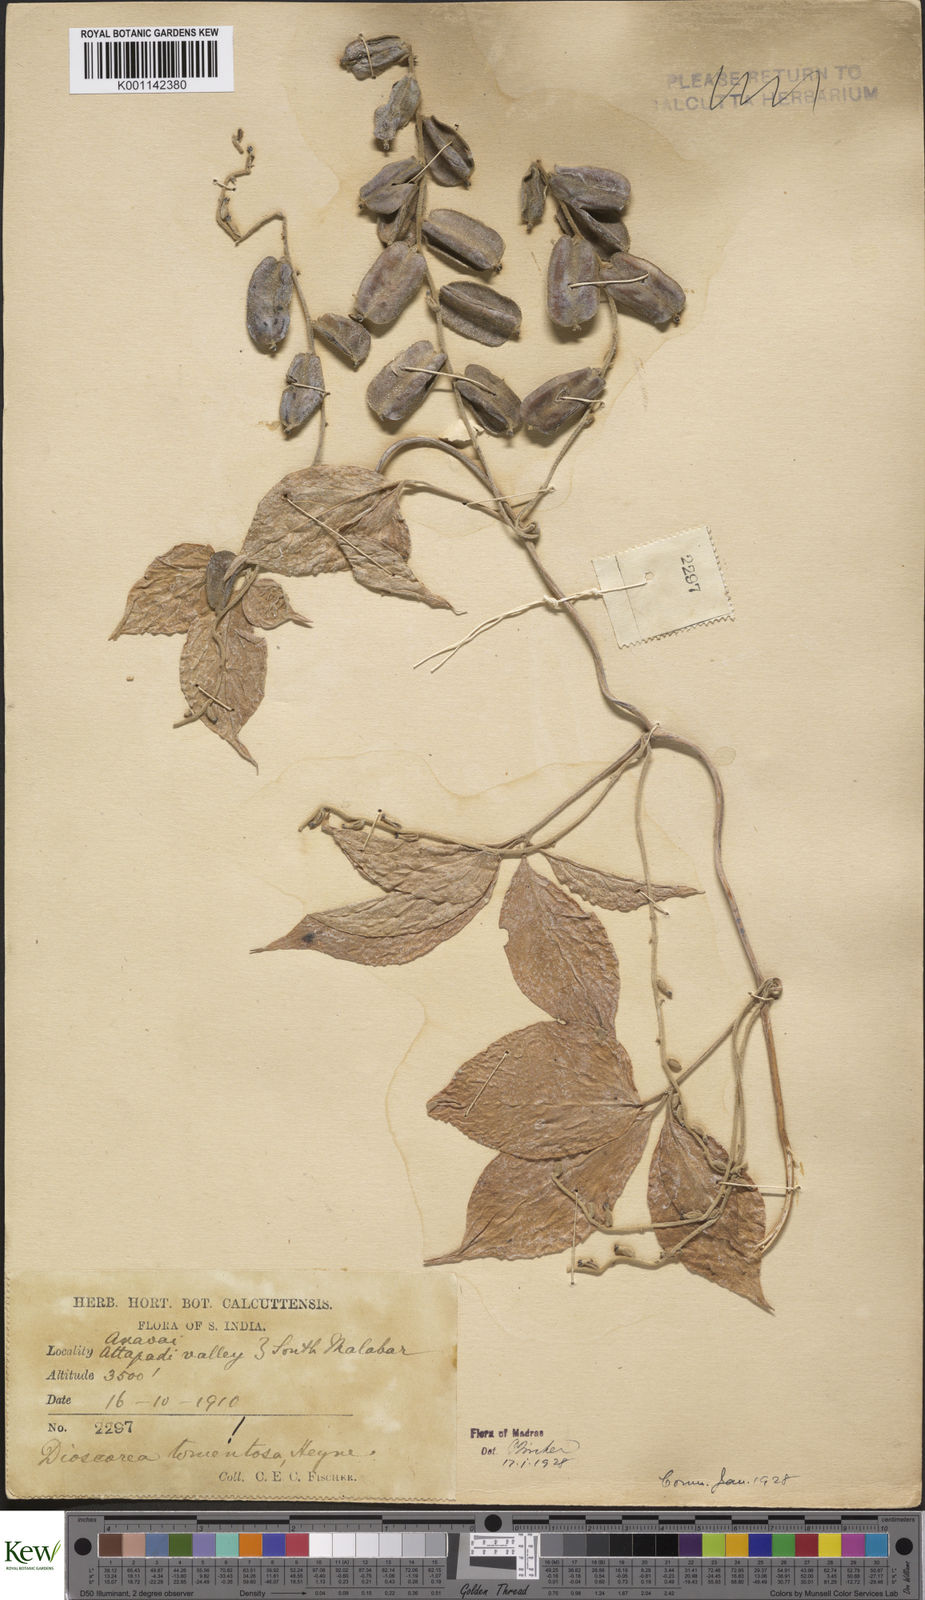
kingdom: Plantae
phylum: Tracheophyta
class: Liliopsida
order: Dioscoreales
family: Dioscoreaceae
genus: Dioscorea
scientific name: Dioscorea
